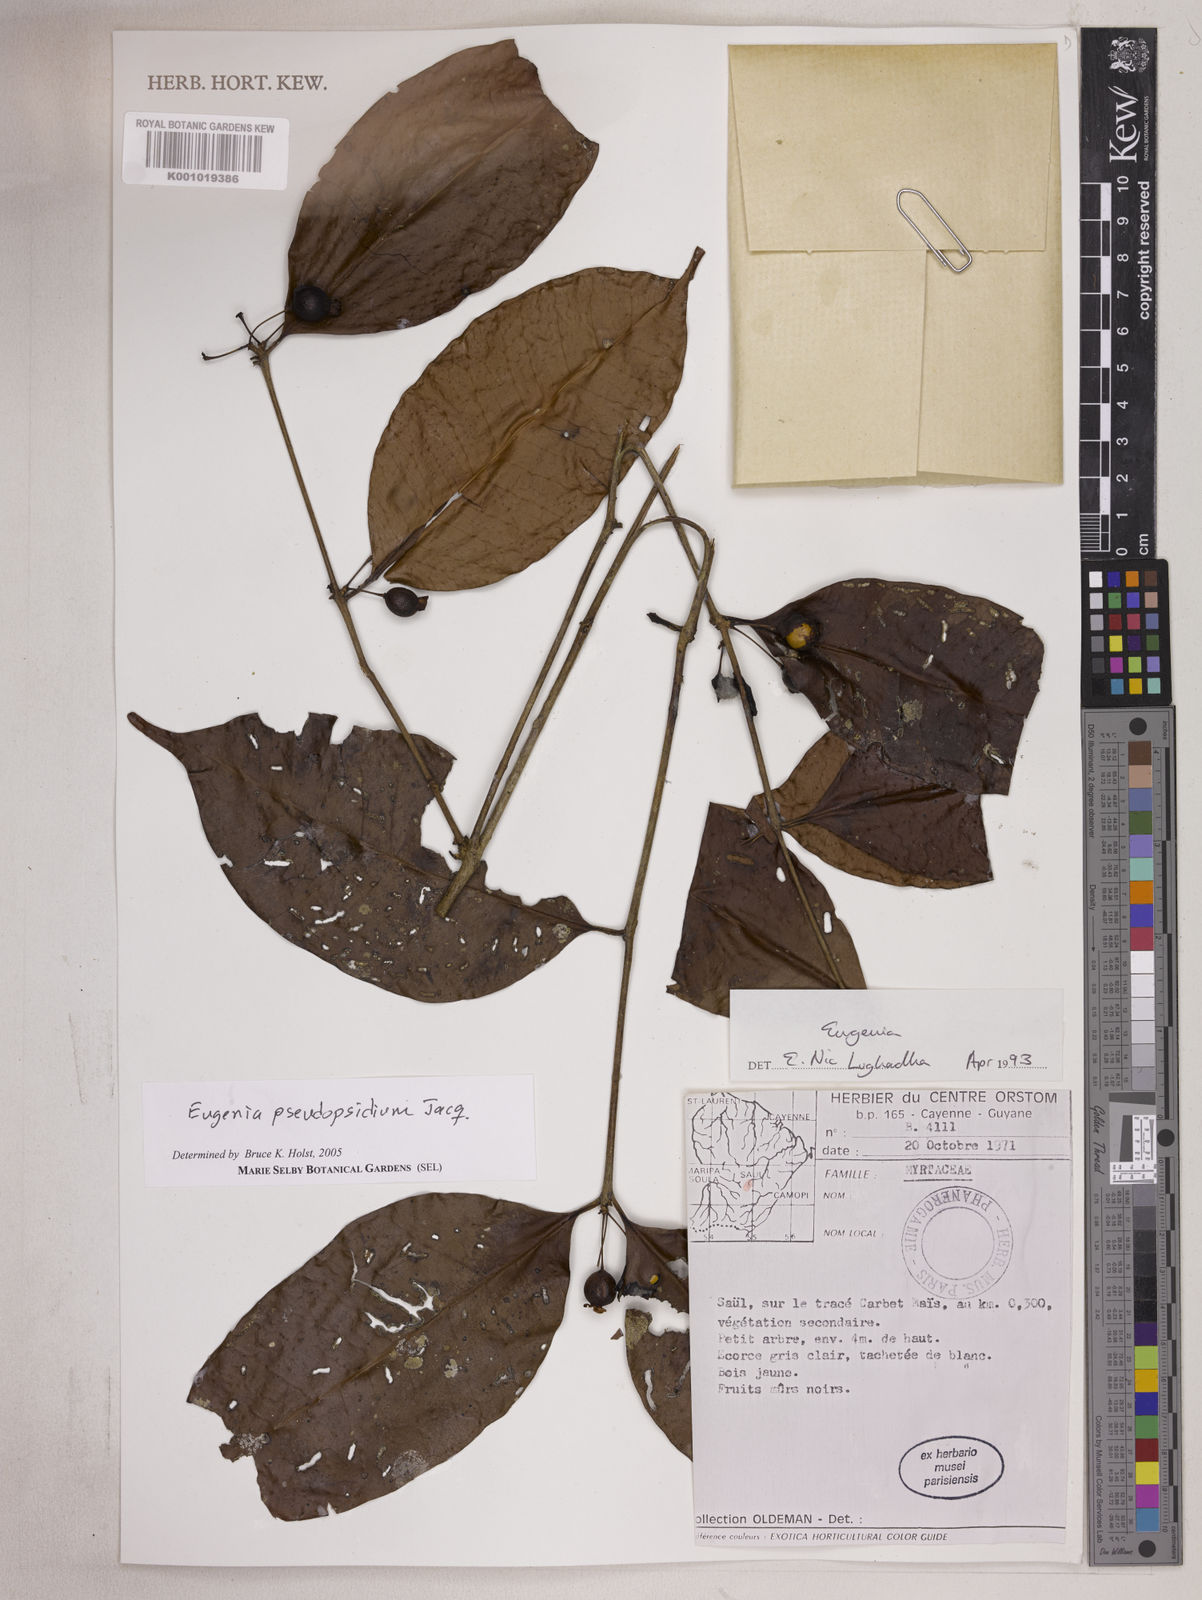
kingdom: Plantae
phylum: Tracheophyta
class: Magnoliopsida
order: Myrtales
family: Myrtaceae
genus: Eugenia
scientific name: Eugenia pseudopsidium
